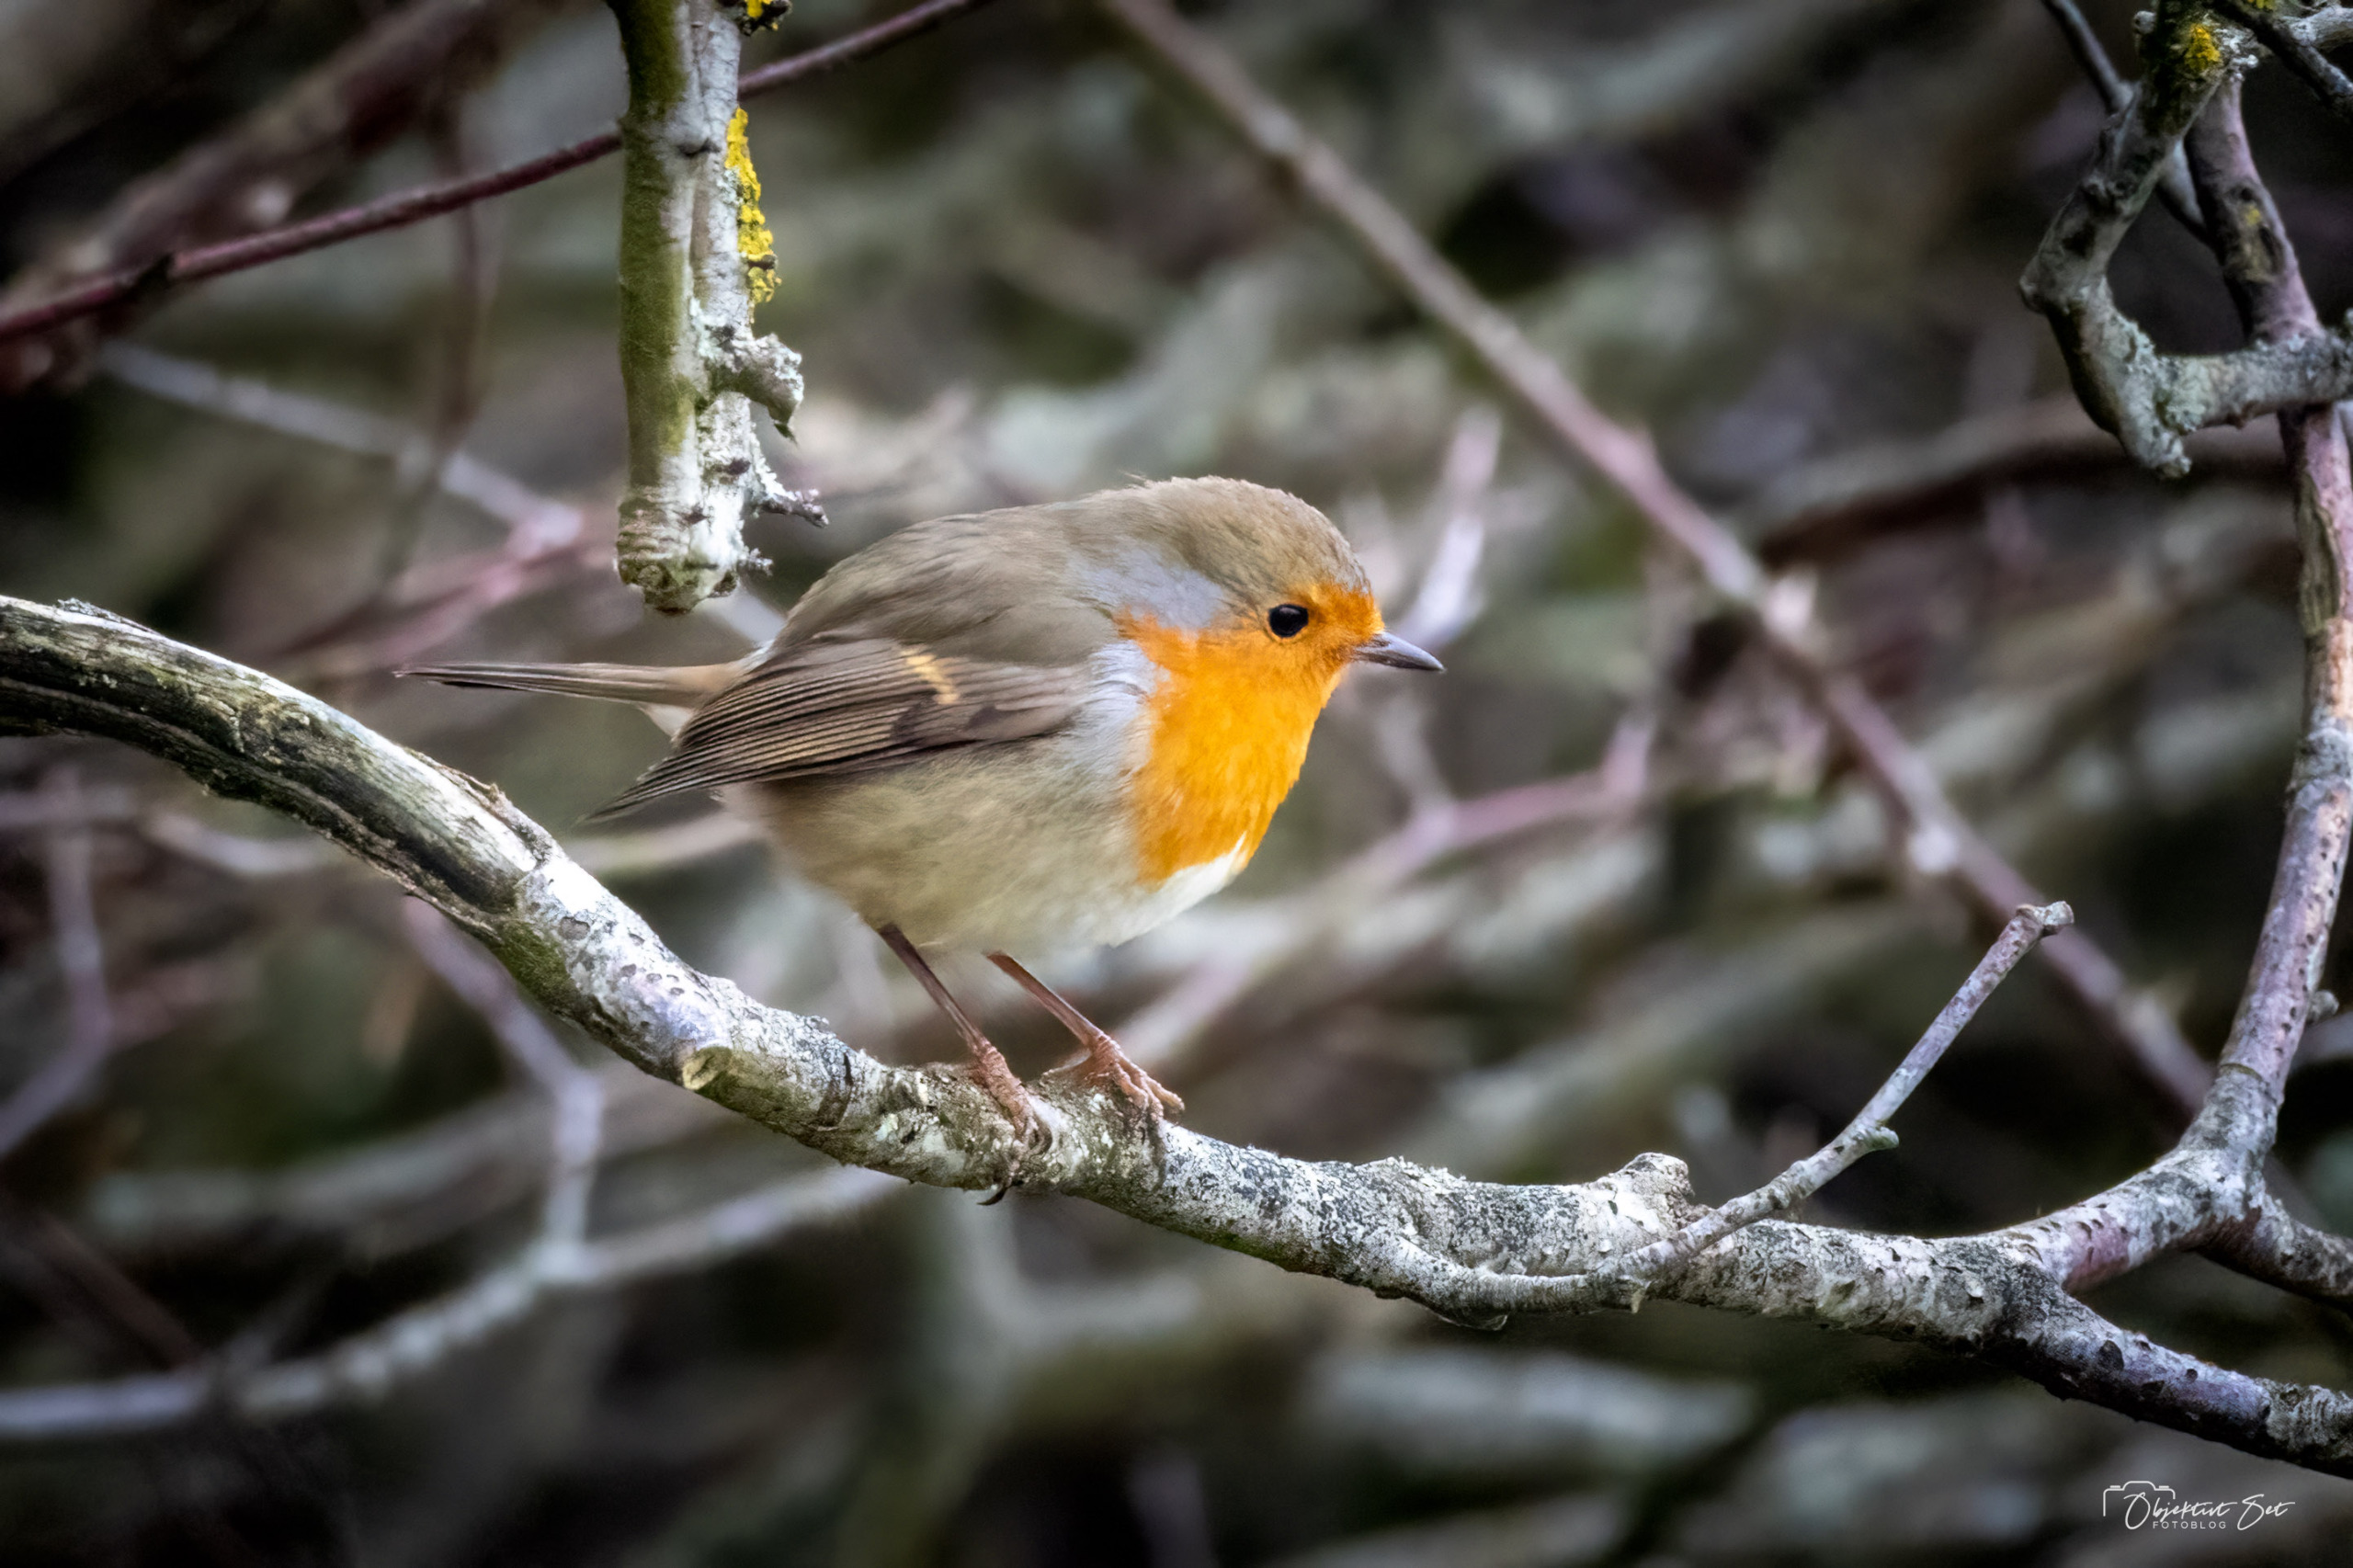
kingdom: Animalia
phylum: Chordata
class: Aves
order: Passeriformes
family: Muscicapidae
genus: Erithacus
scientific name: Erithacus rubecula
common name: Rødhals/rødkælk
